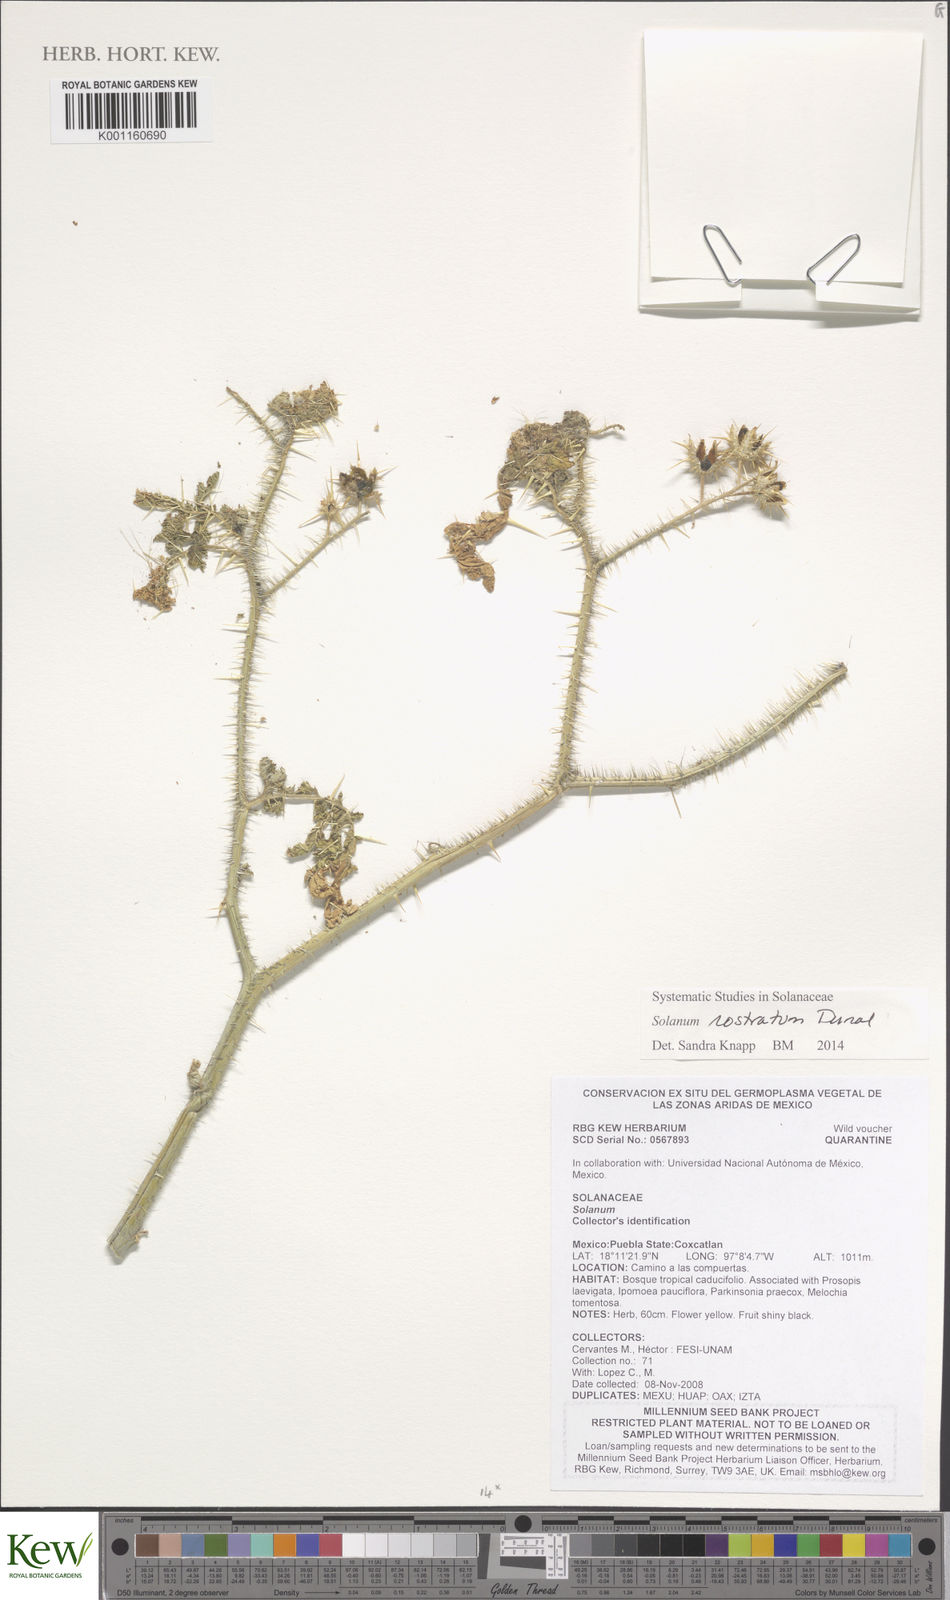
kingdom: Plantae
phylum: Tracheophyta
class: Magnoliopsida
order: Solanales
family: Solanaceae
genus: Solanum
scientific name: Solanum angustifolium
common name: Buffalobur nightshade
